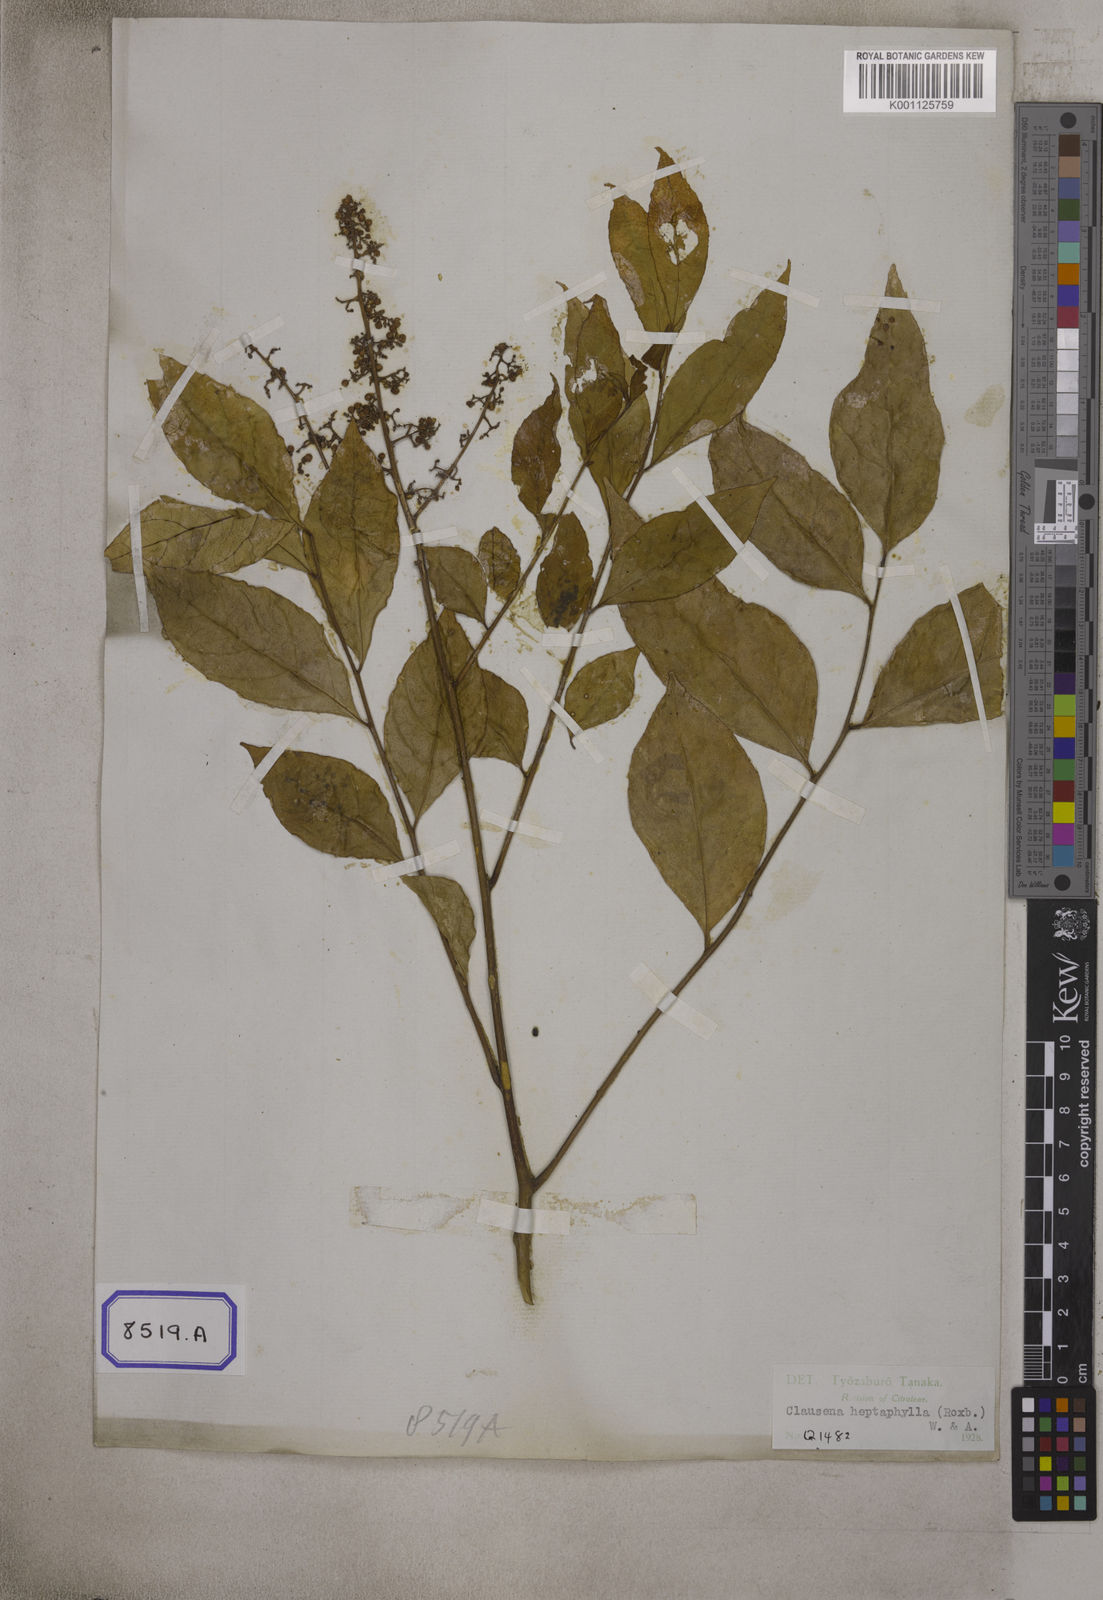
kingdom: Plantae
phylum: Tracheophyta
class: Magnoliopsida
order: Sapindales
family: Rutaceae
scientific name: Rutaceae
